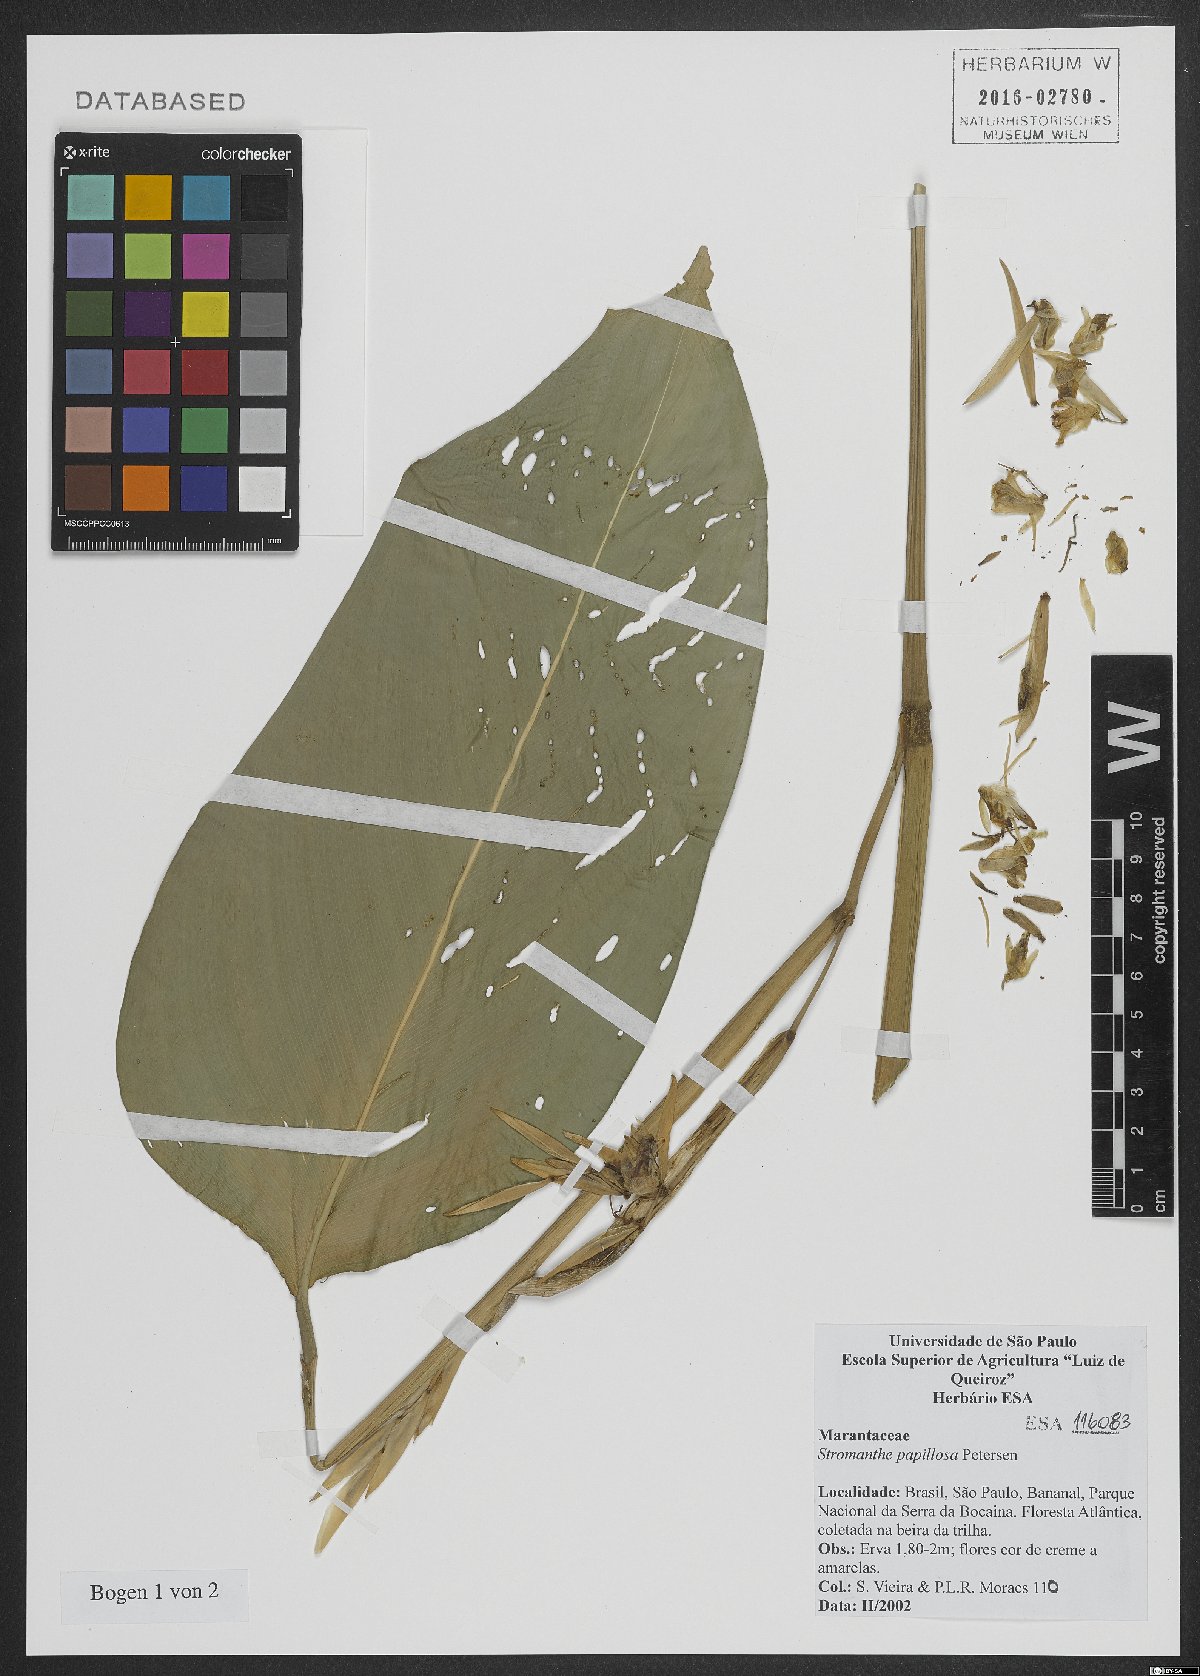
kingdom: Plantae
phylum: Tracheophyta
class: Liliopsida
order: Zingiberales
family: Marantaceae
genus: Stromanthe
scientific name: Stromanthe papillosa
